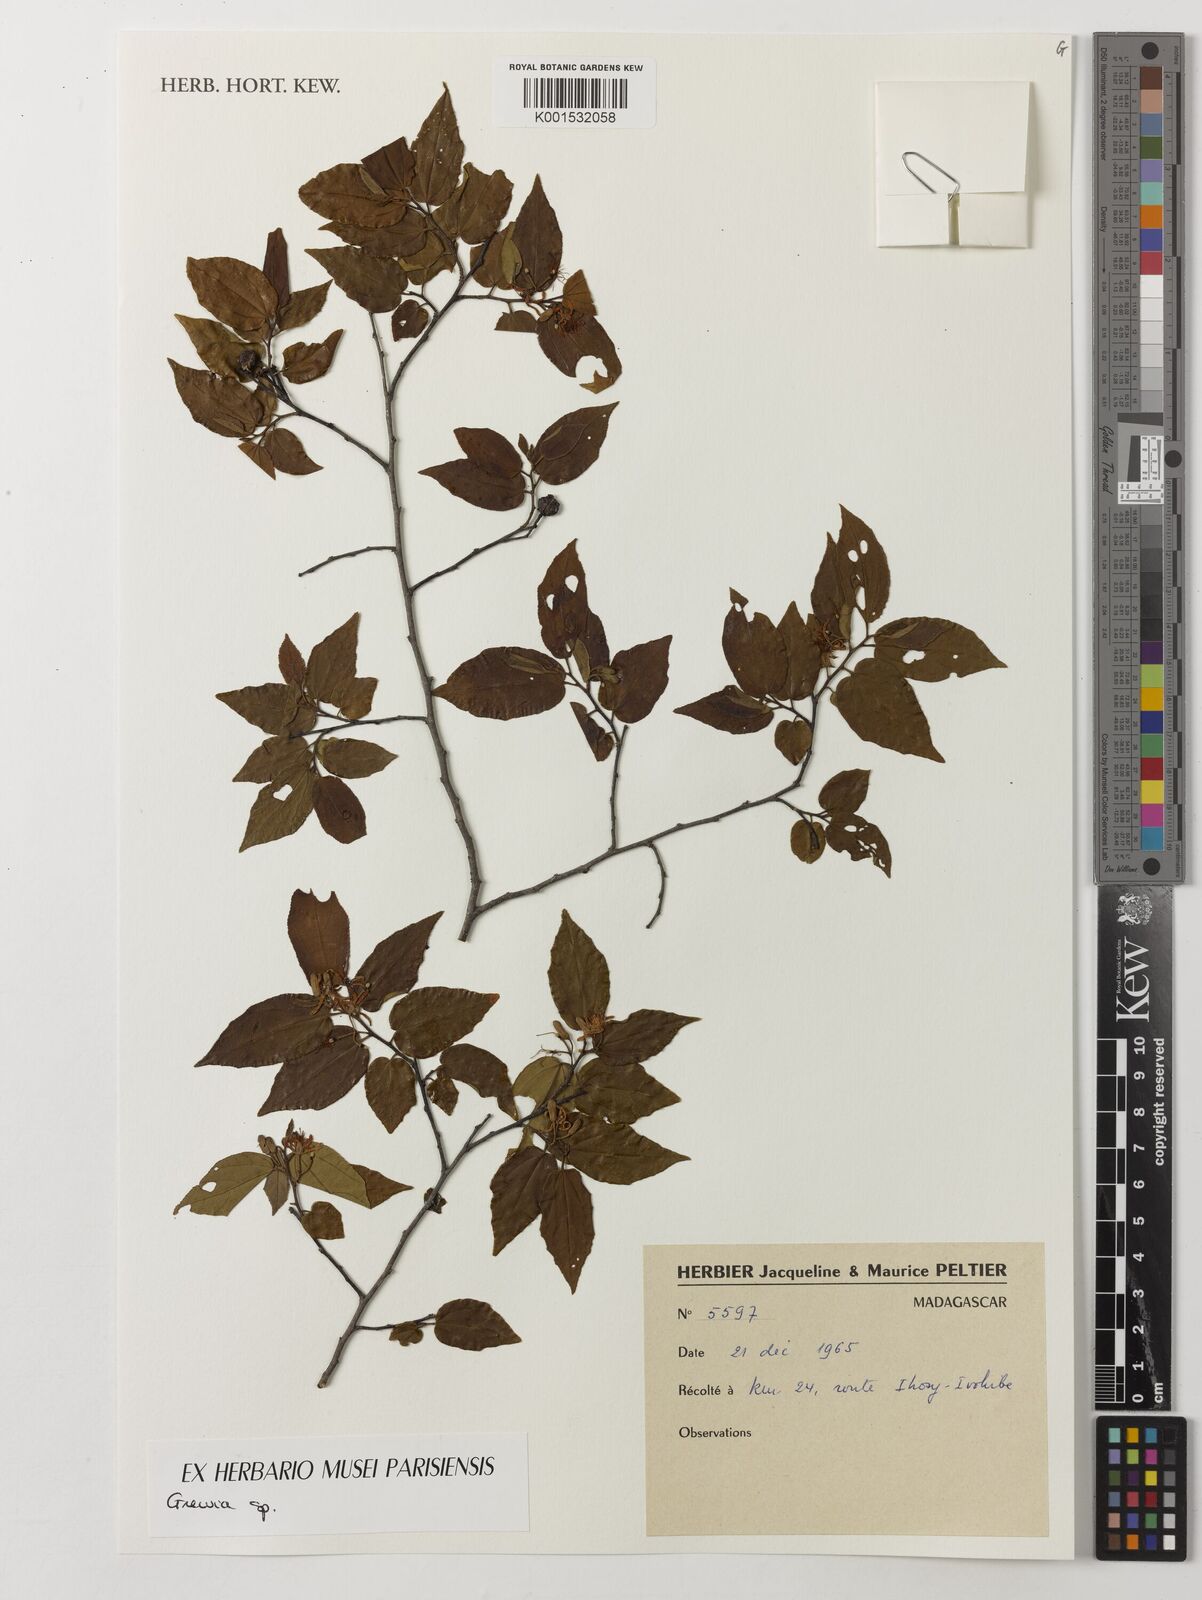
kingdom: Plantae
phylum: Tracheophyta
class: Magnoliopsida
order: Malvales
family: Malvaceae
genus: Grewia
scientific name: Grewia
